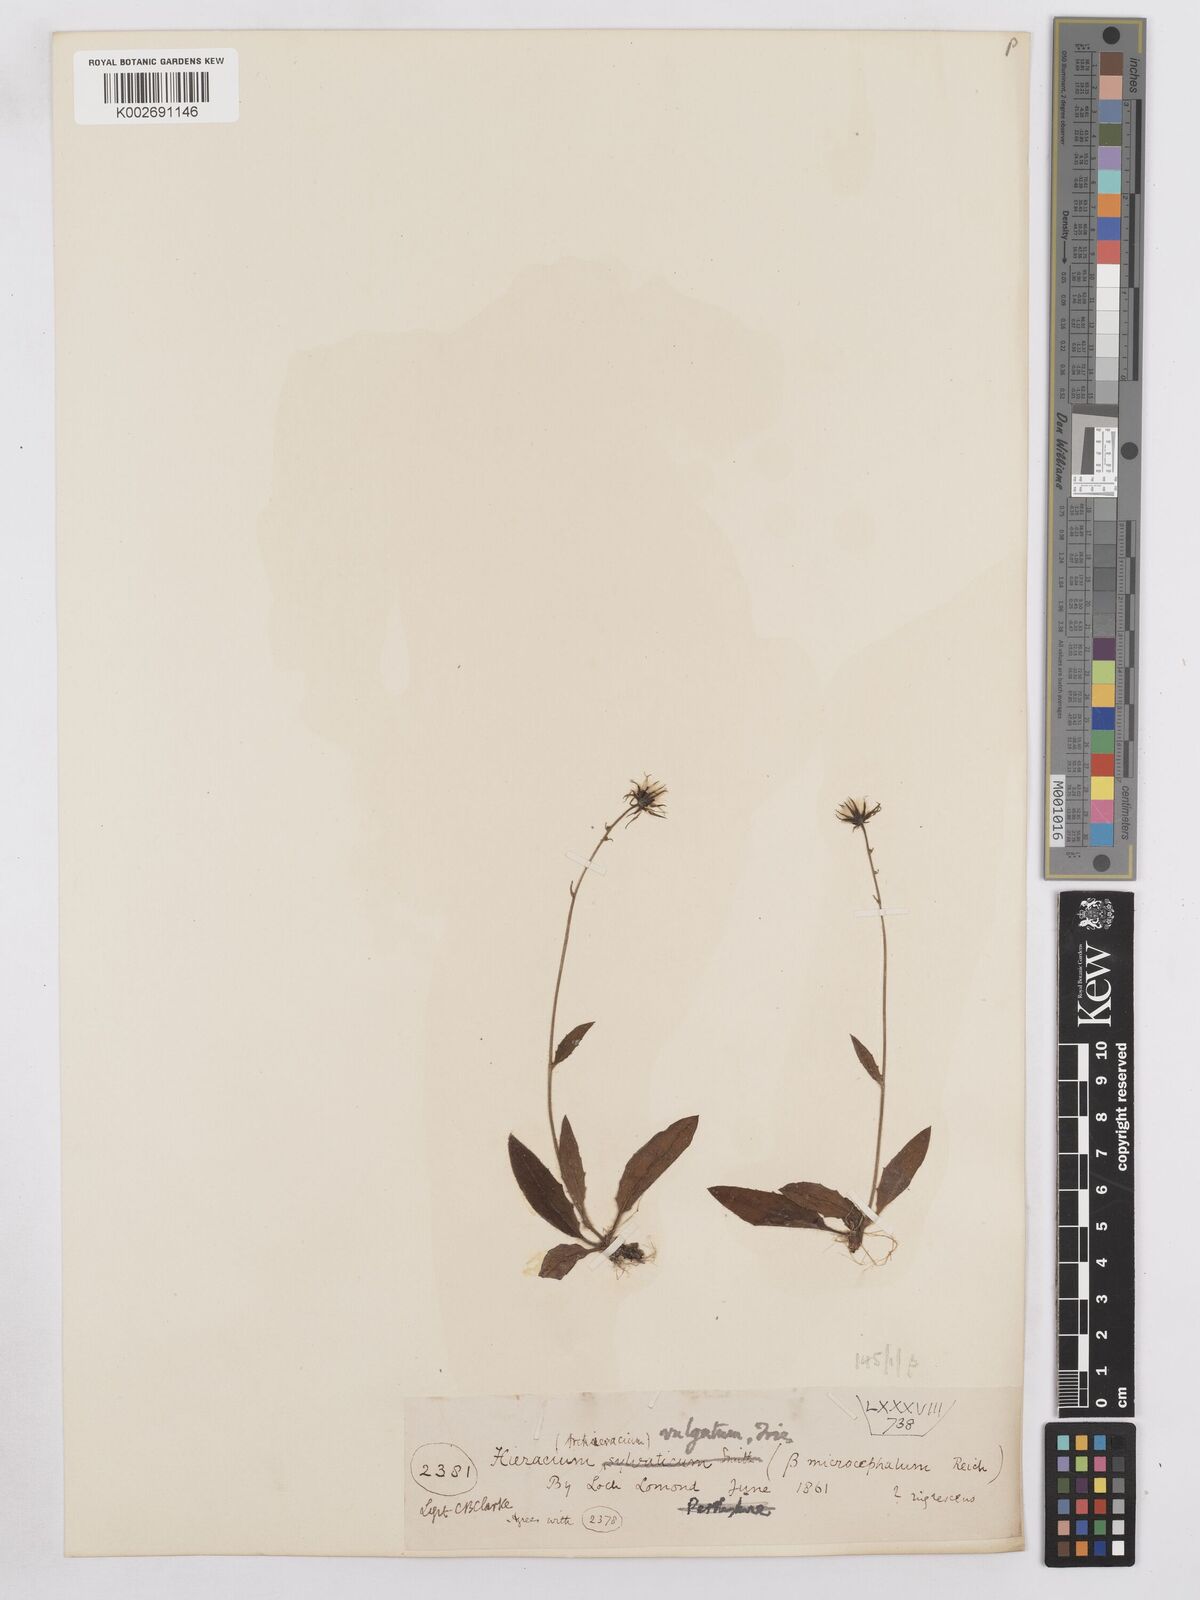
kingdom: Plantae
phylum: Tracheophyta
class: Magnoliopsida
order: Asterales
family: Asteraceae
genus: Hieracium
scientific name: Hieracium lachenalii
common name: Common hawkweed
